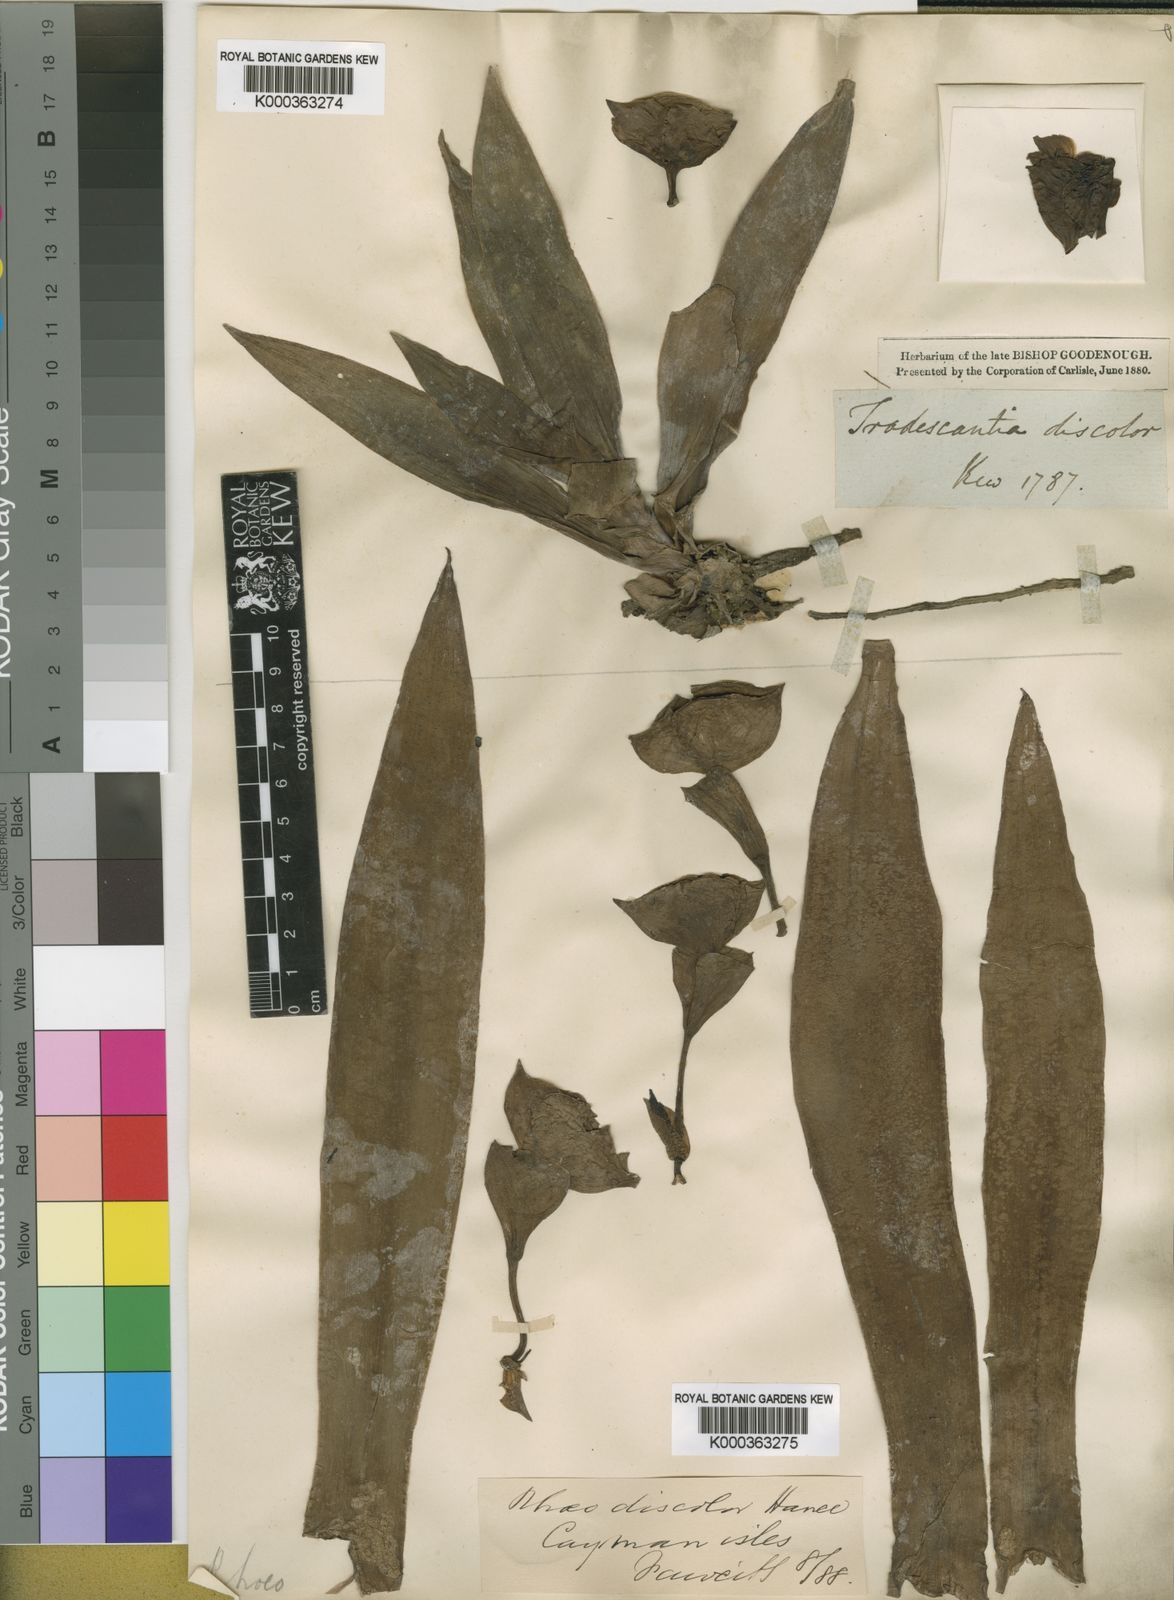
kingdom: Plantae
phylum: Tracheophyta
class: Liliopsida
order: Commelinales
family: Commelinaceae
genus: Tradescantia
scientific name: Tradescantia spathacea
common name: Boatlily
